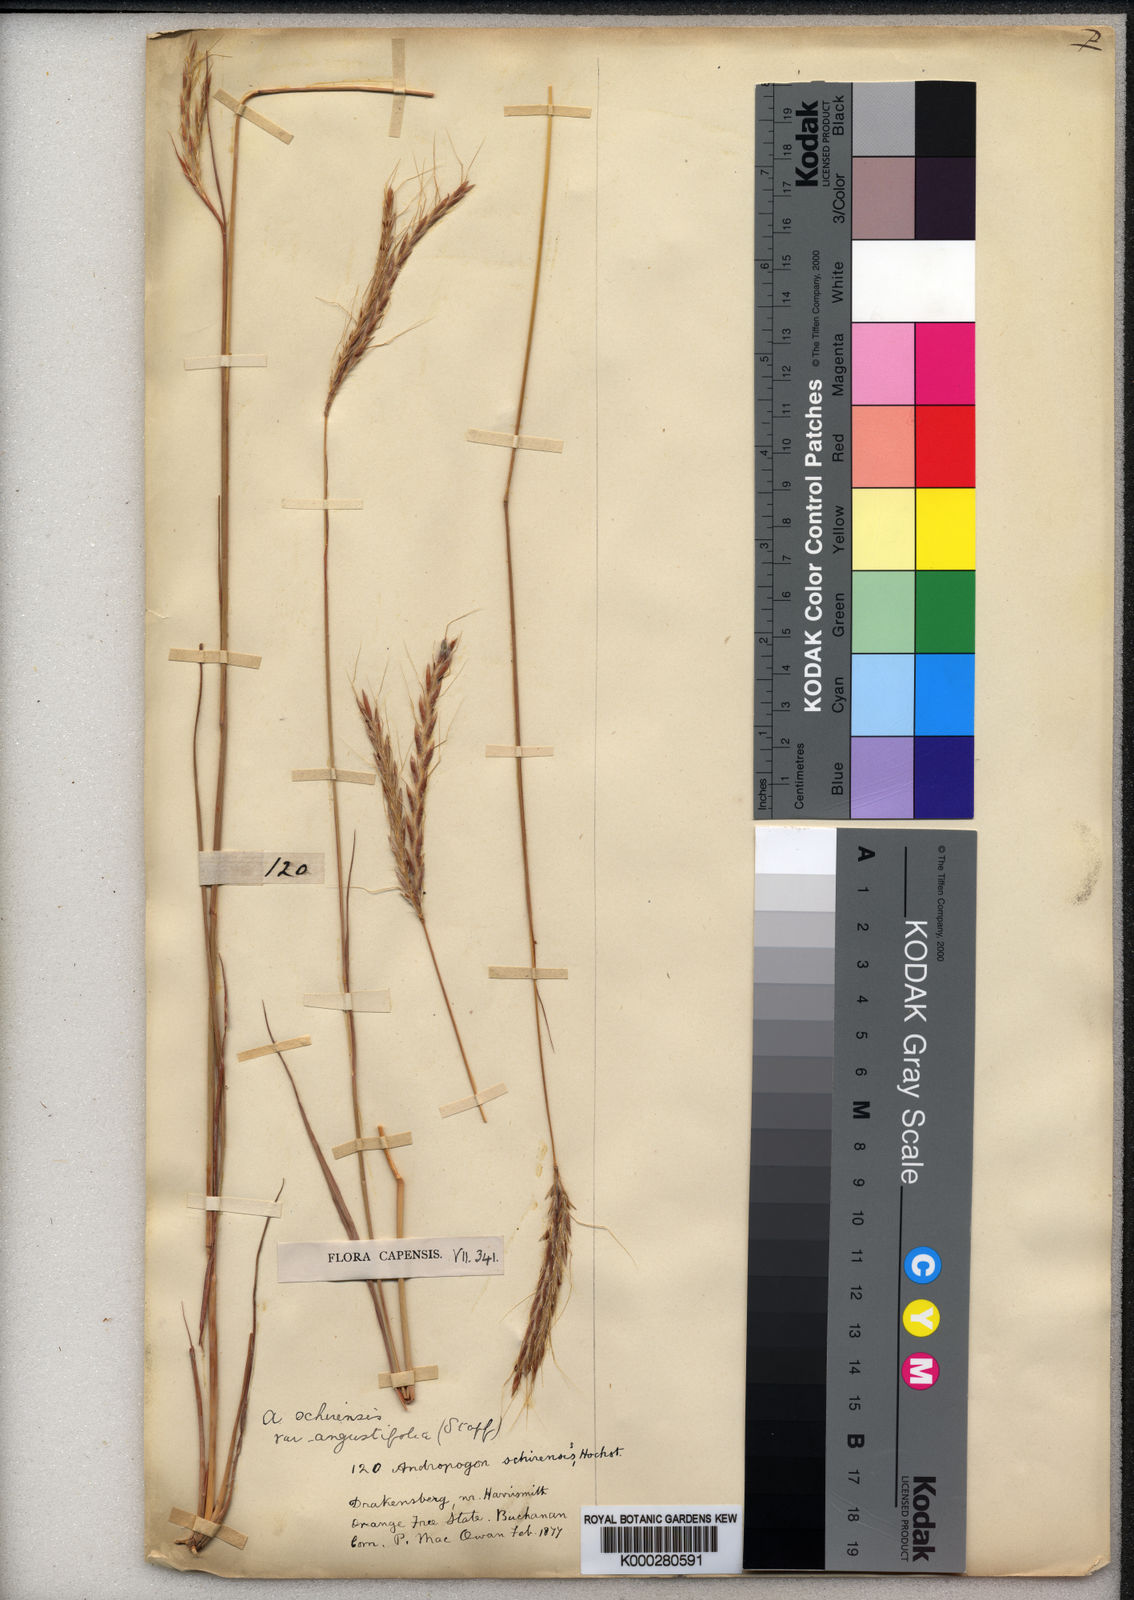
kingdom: Plantae
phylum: Tracheophyta
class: Liliopsida
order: Poales
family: Poaceae
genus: Andropogon
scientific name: Andropogon
